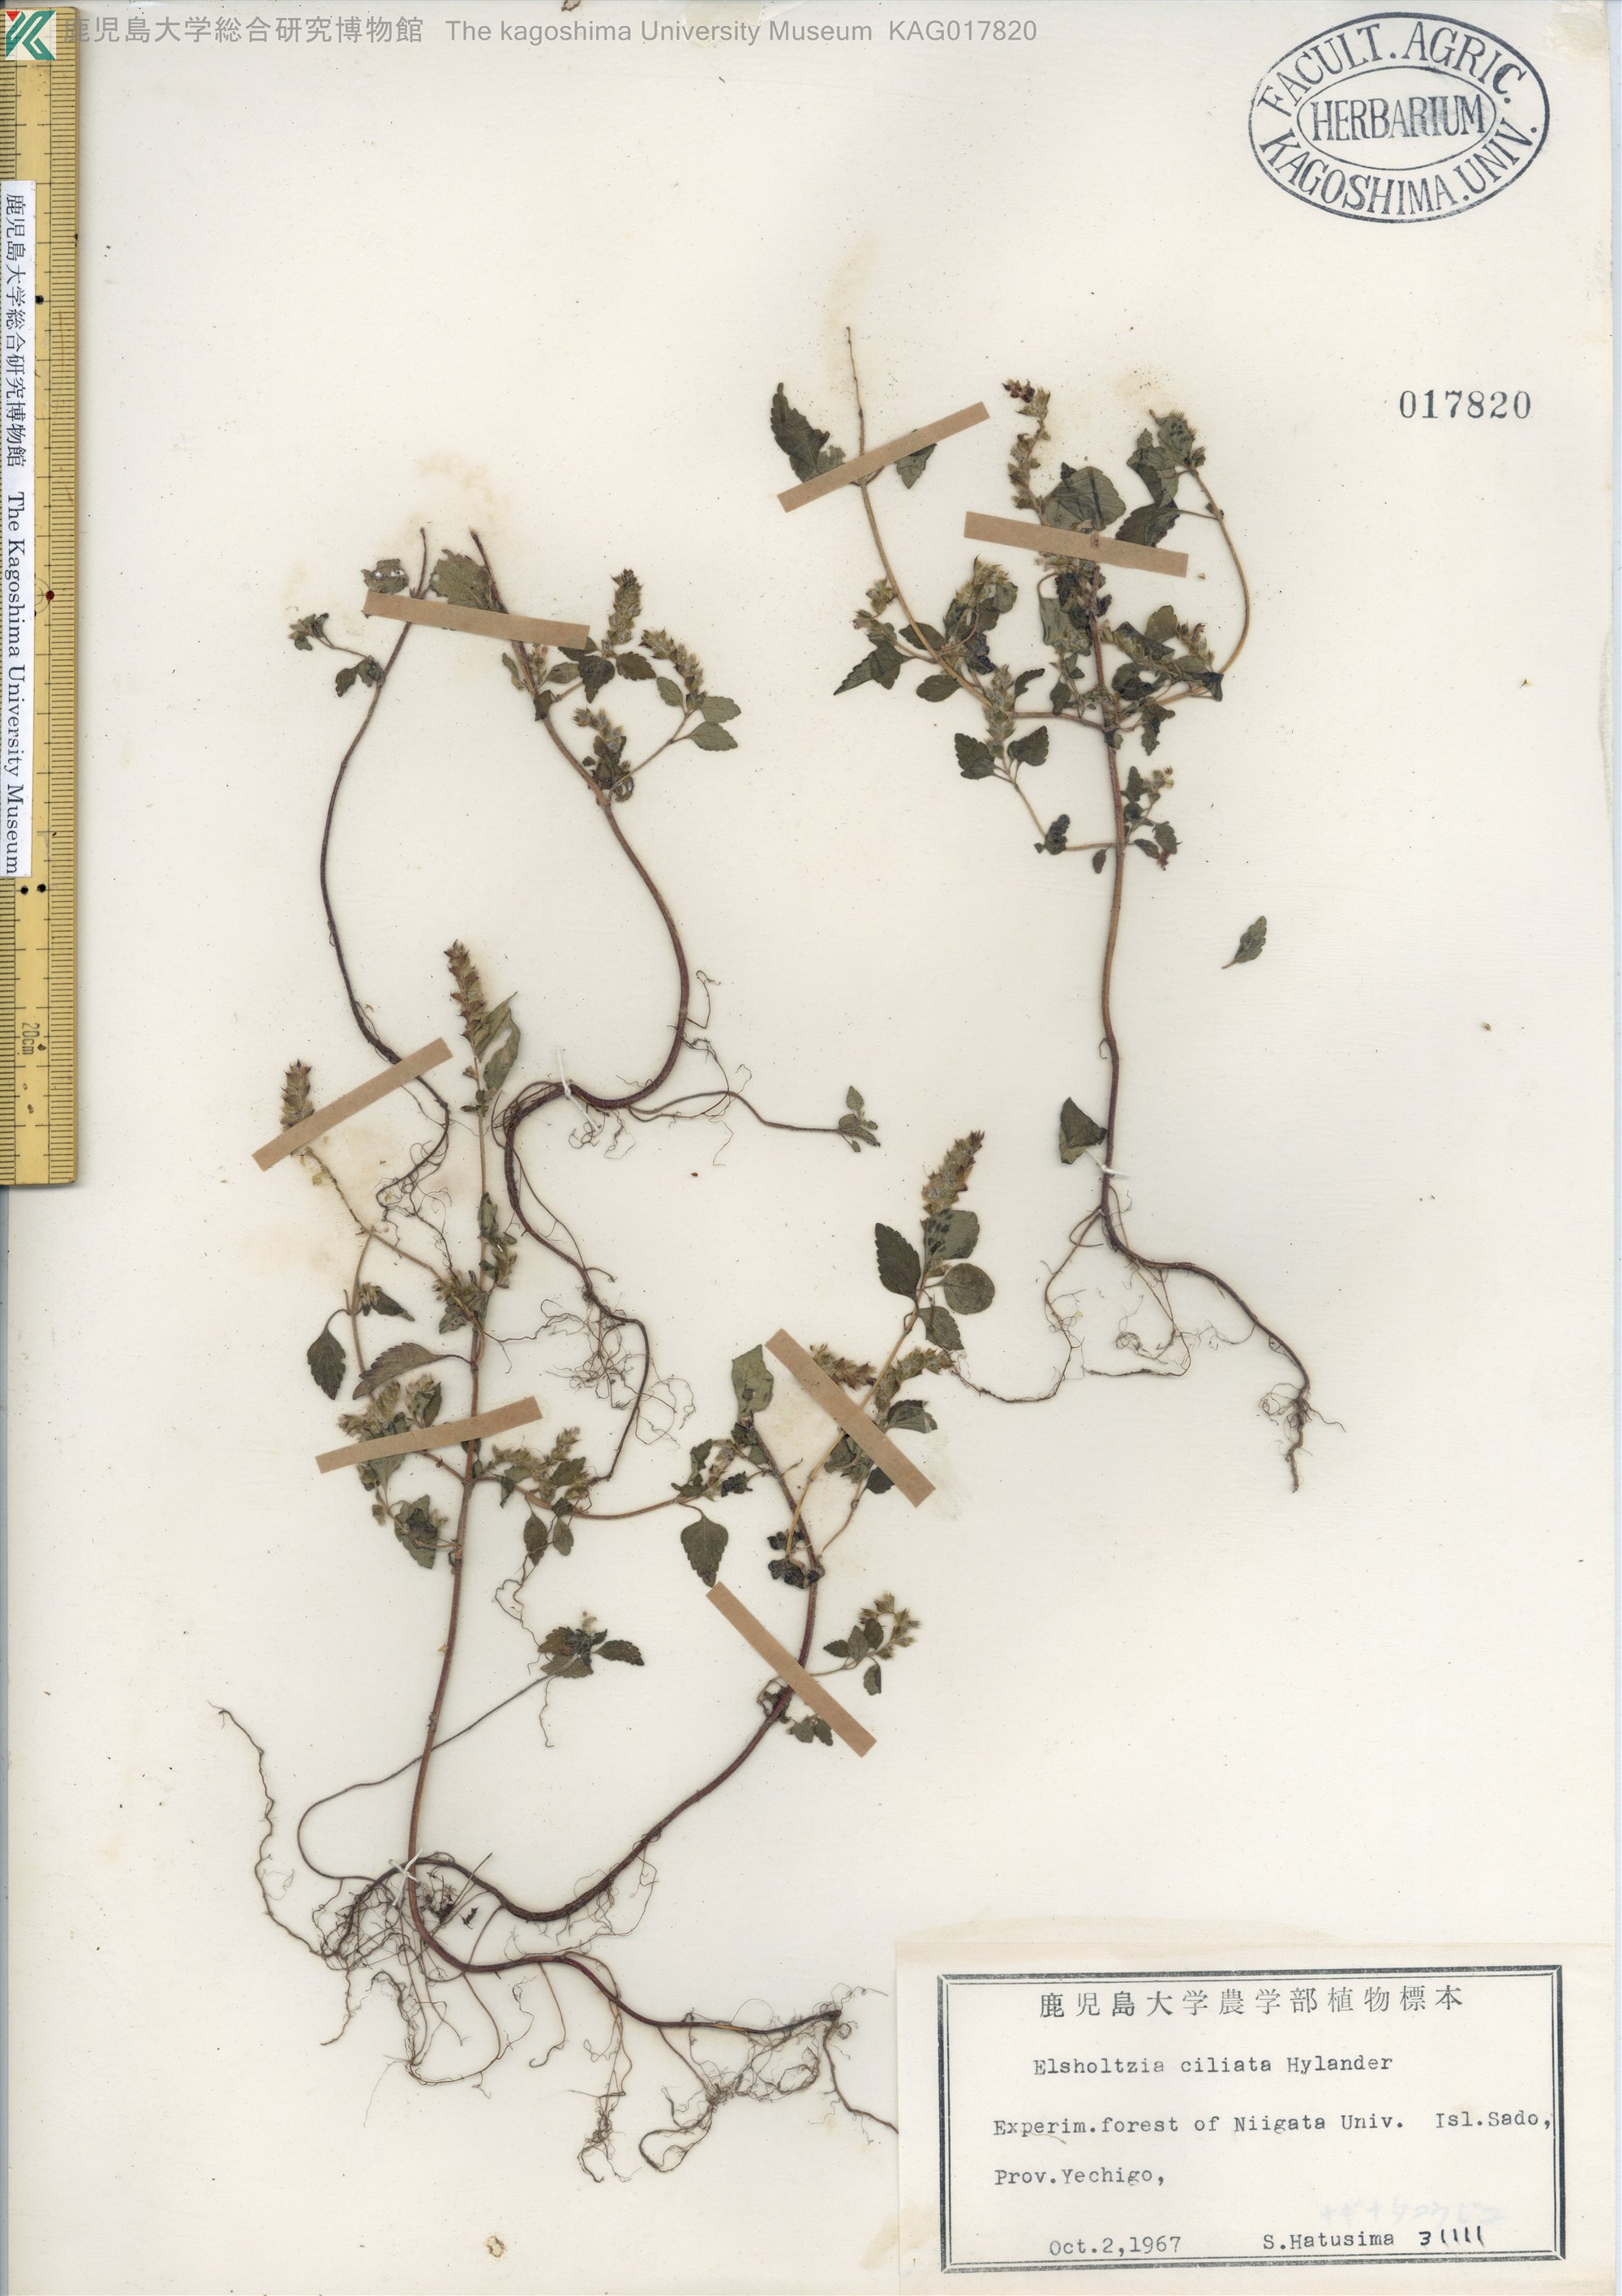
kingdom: Plantae
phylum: Tracheophyta
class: Magnoliopsida
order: Lamiales
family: Lamiaceae
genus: Elsholtzia
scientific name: Elsholtzia ciliata
